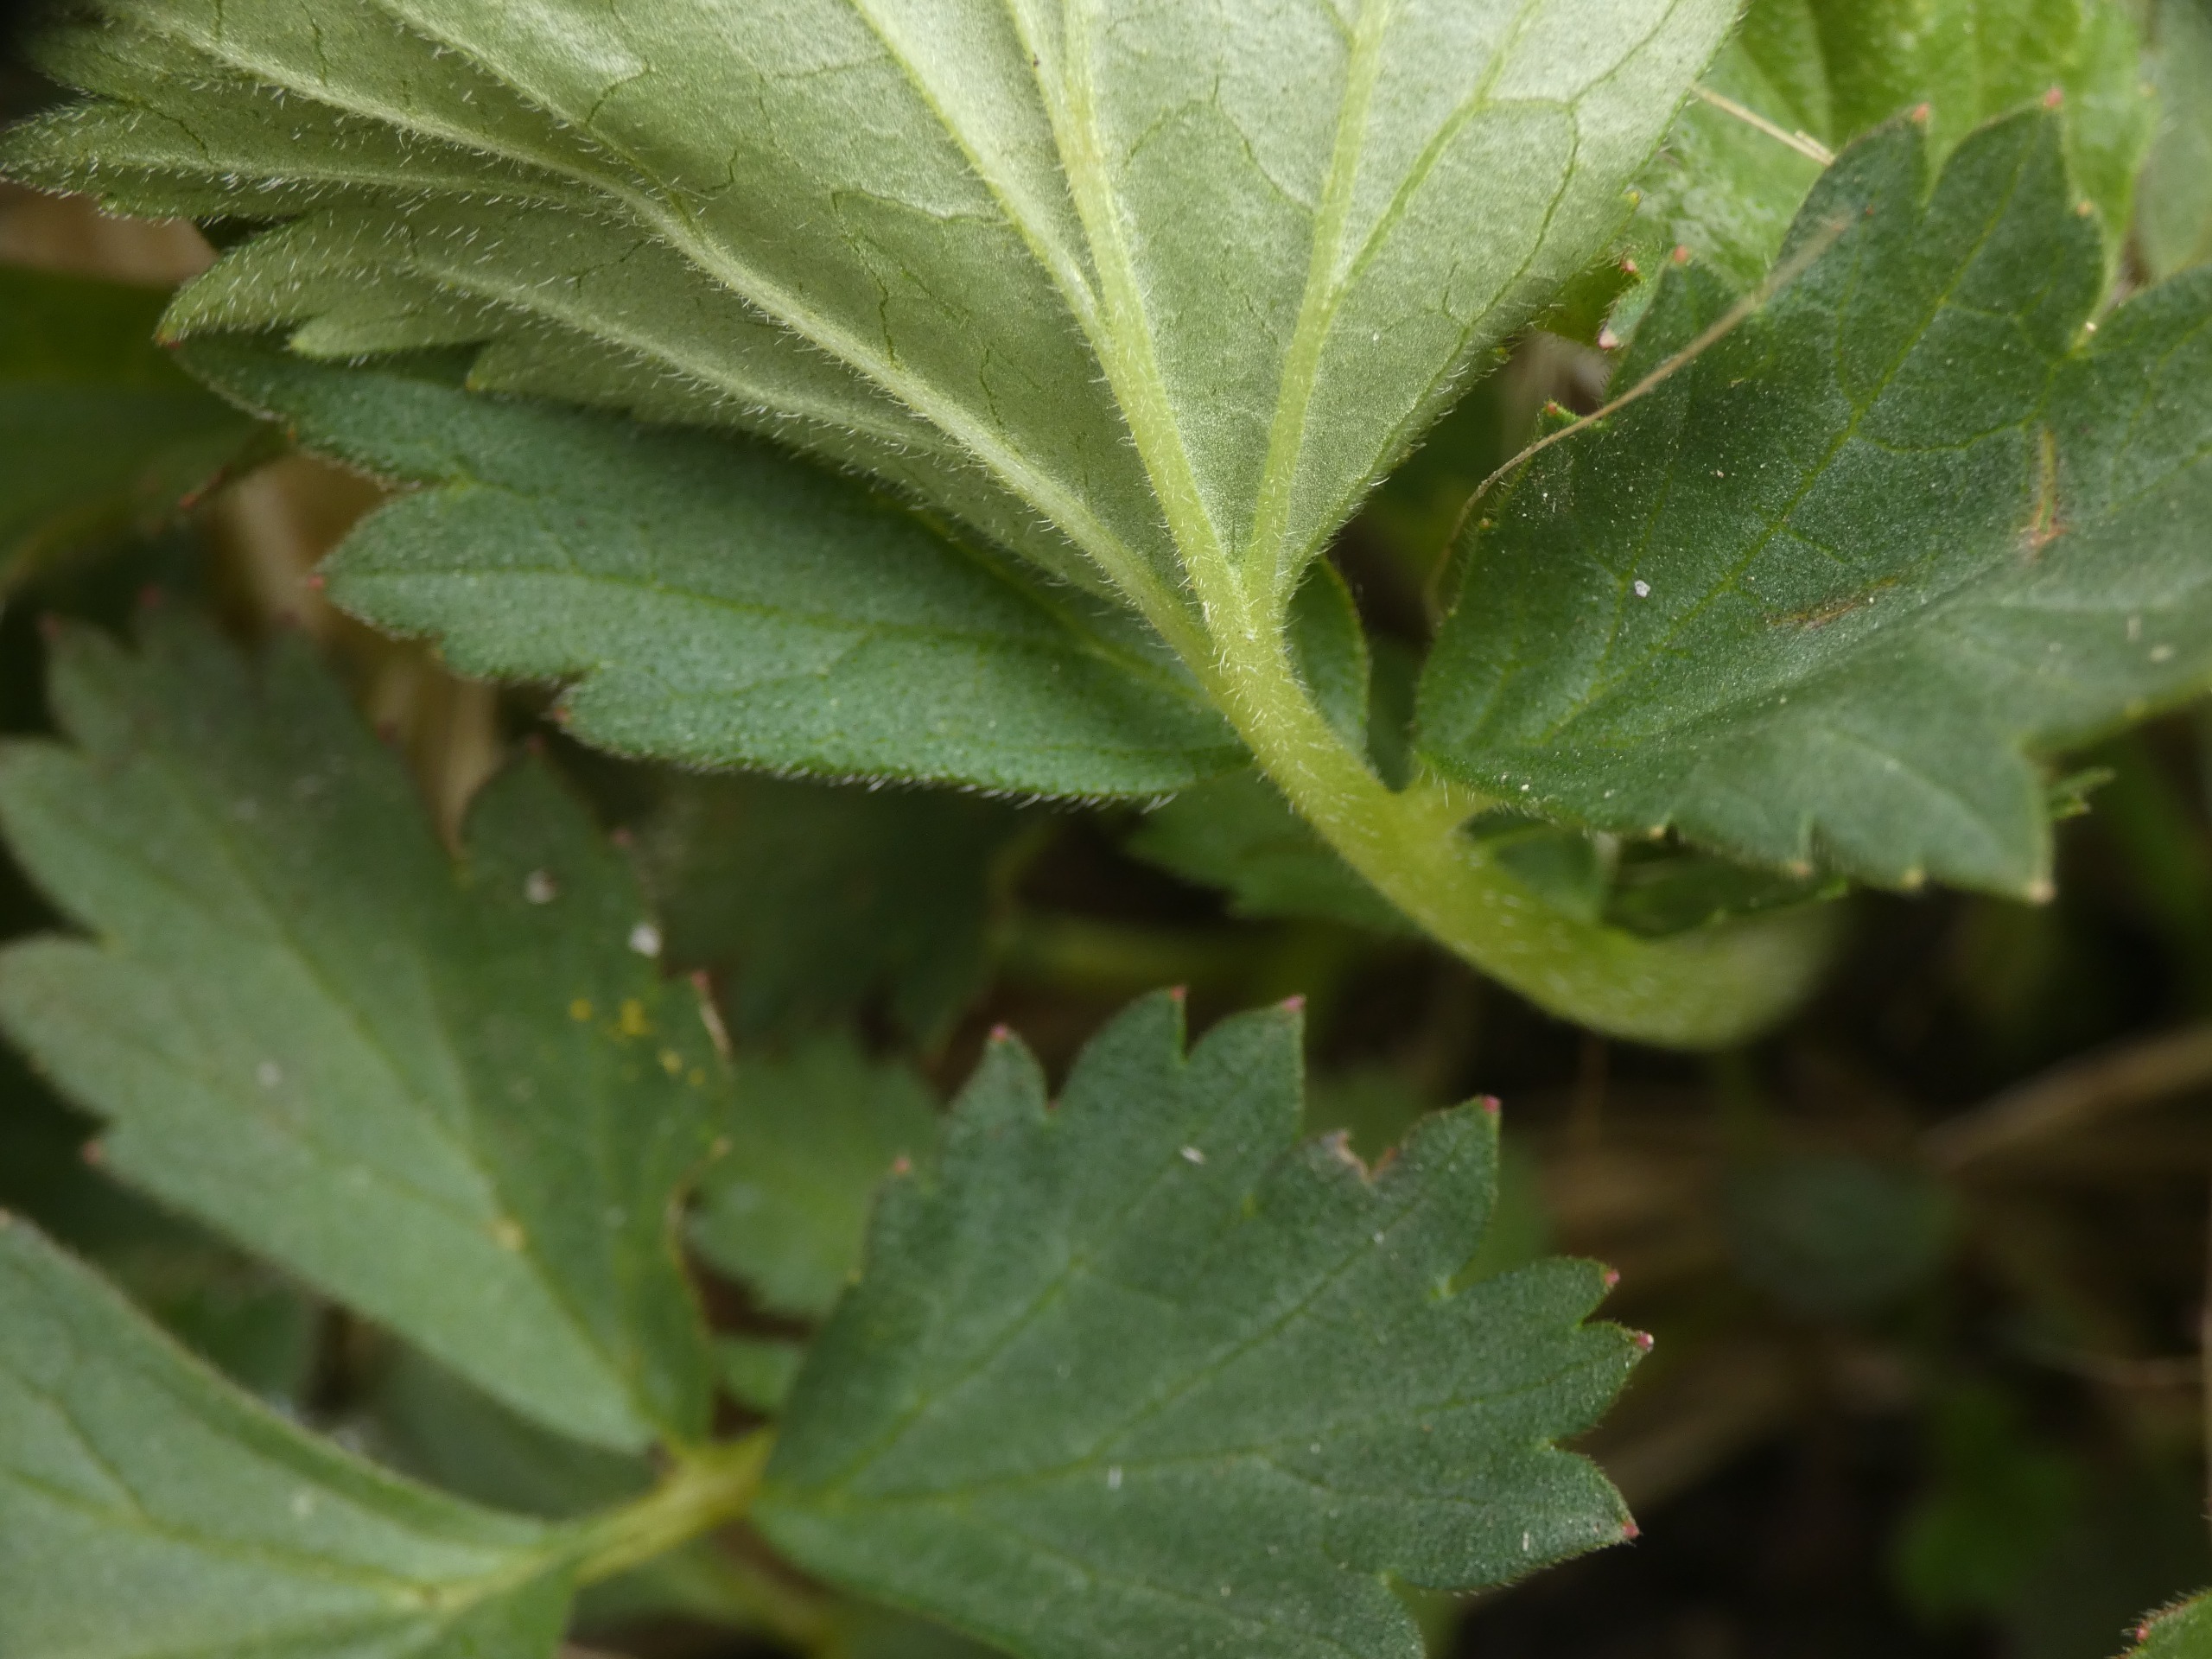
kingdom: Plantae
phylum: Tracheophyta
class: Magnoliopsida
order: Rosales
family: Rosaceae
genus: Geum
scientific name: Geum rivale
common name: Eng-nellikerod
